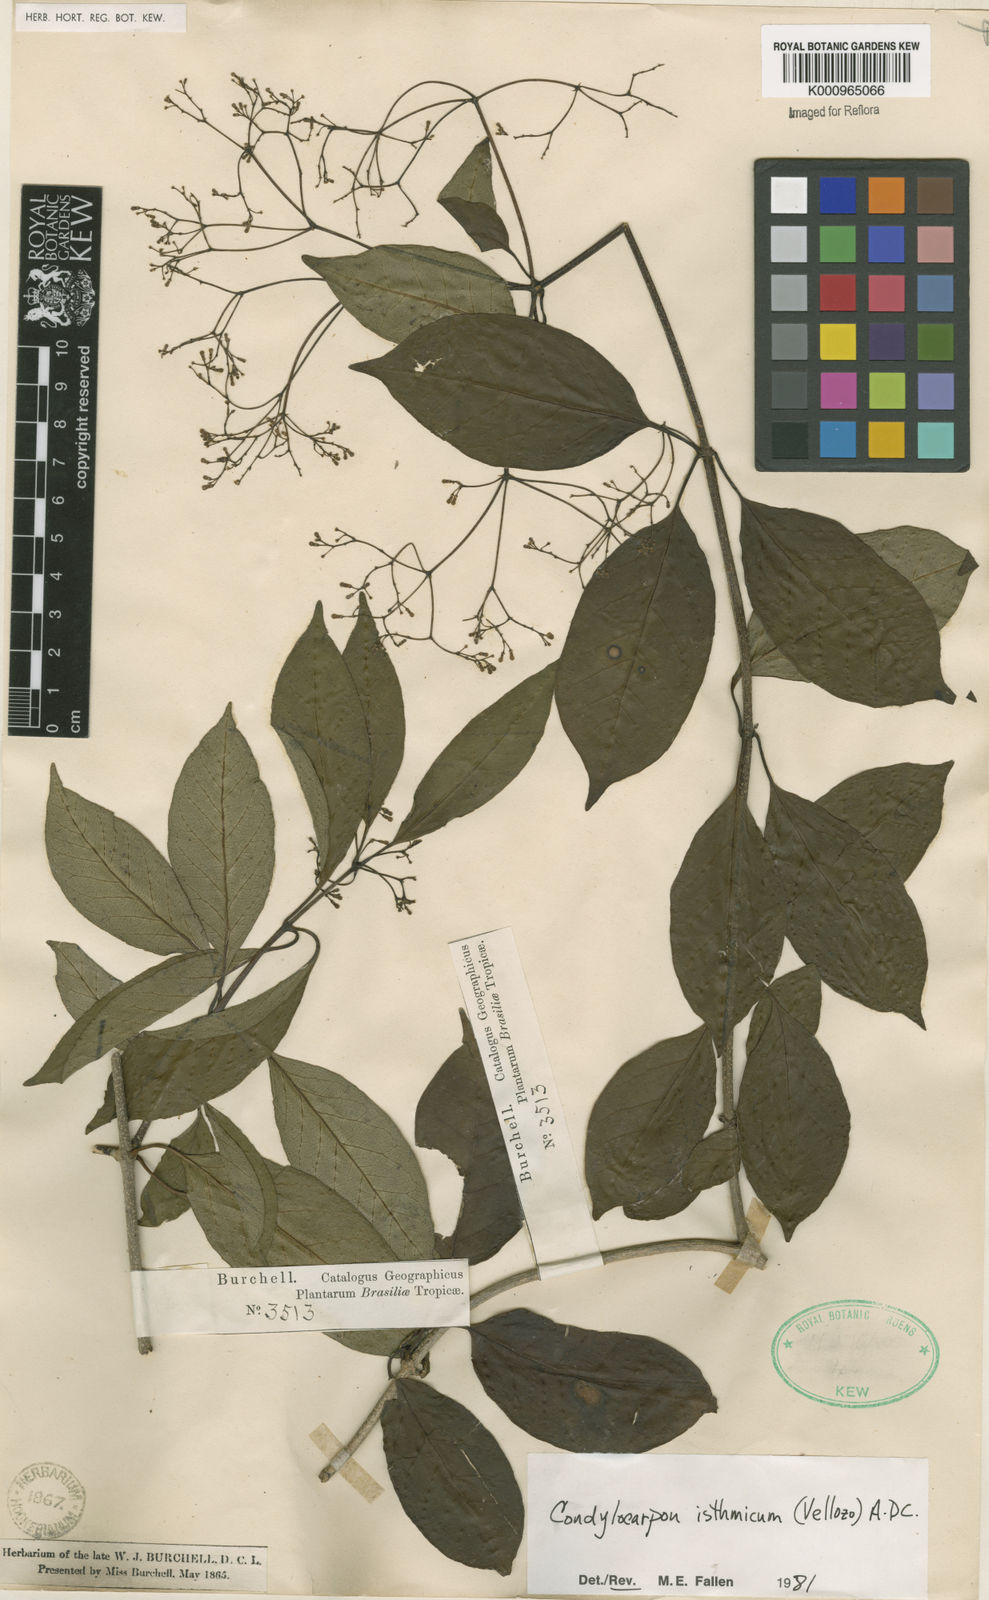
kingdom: Plantae
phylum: Tracheophyta
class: Magnoliopsida
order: Gentianales
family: Apocynaceae
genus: Condylocarpon
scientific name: Condylocarpon isthmicum
